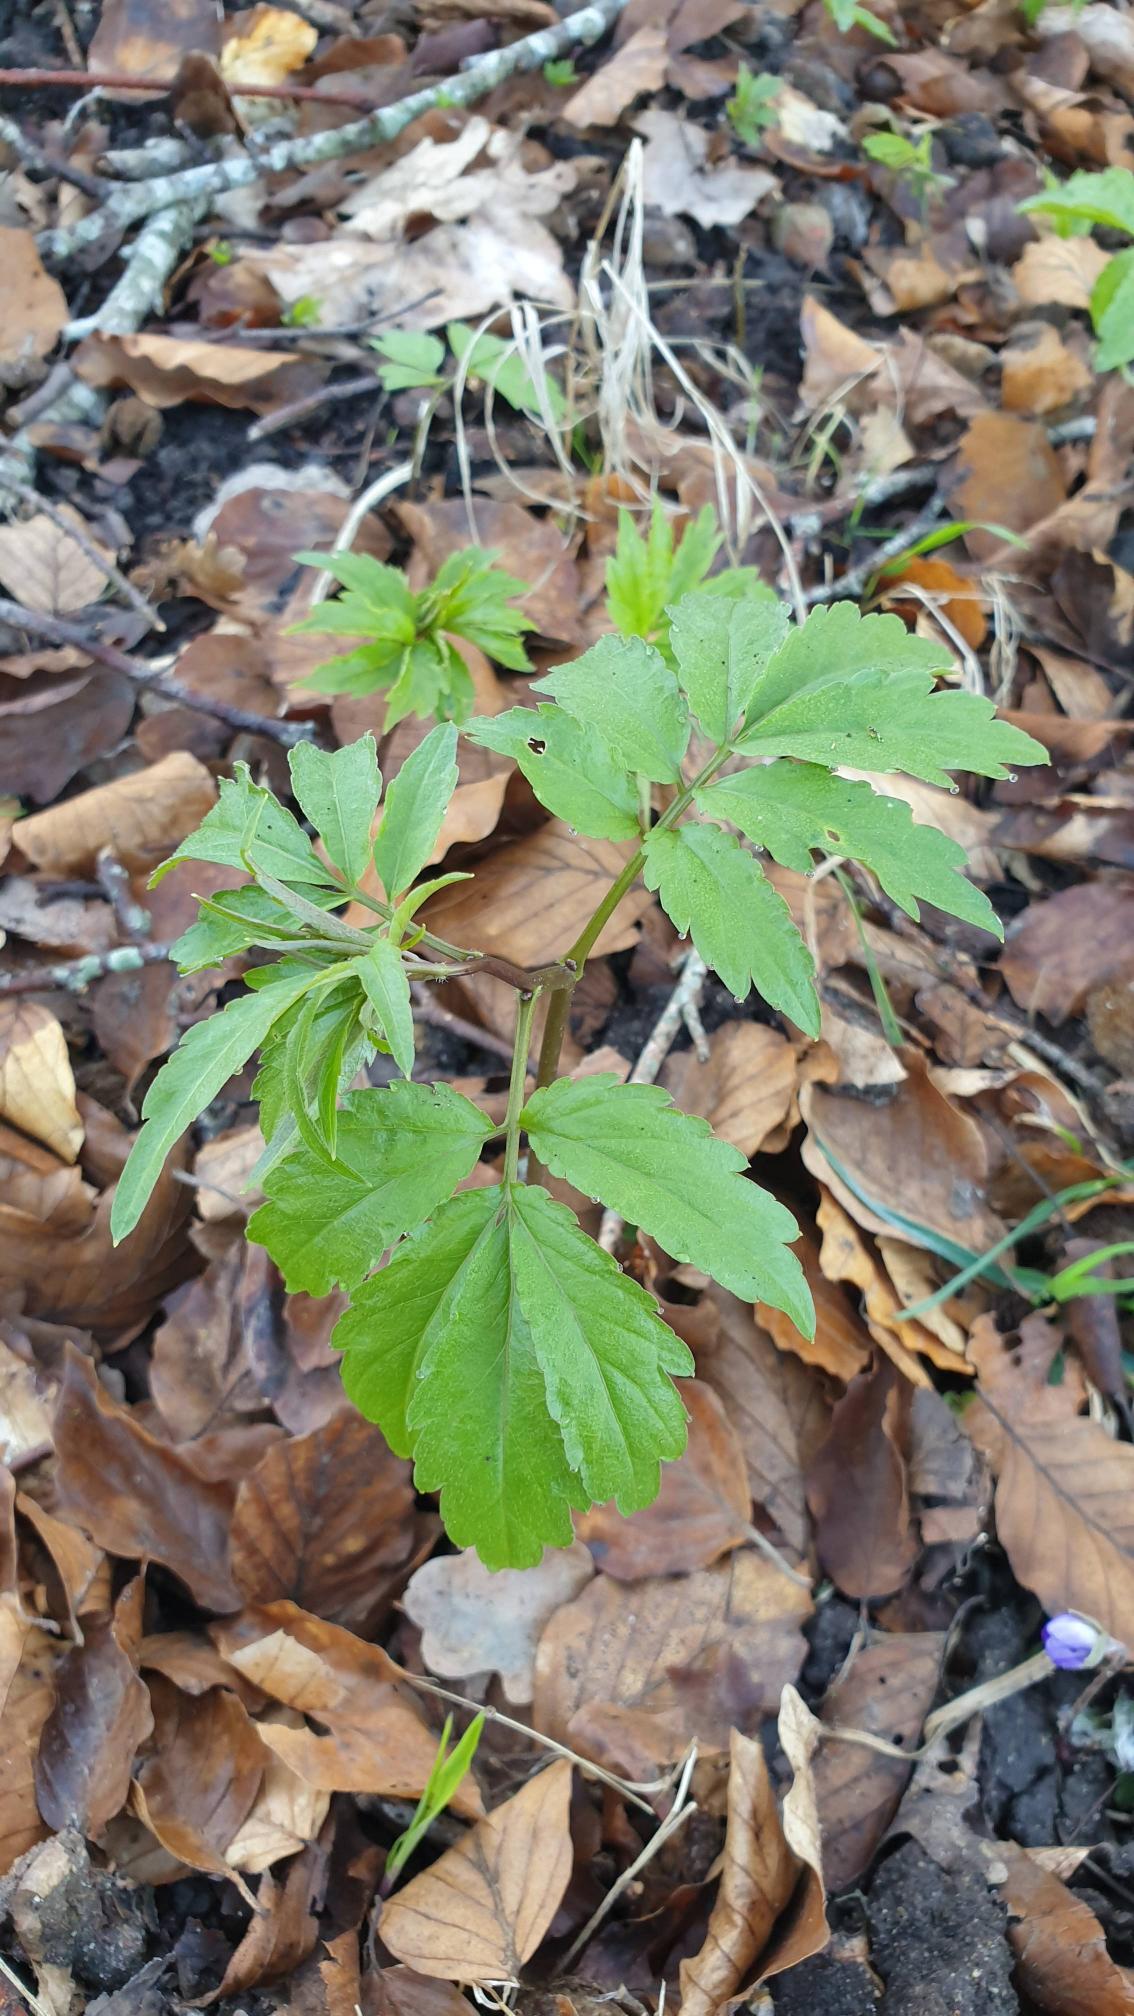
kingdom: Plantae
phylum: Tracheophyta
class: Magnoliopsida
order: Brassicales
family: Brassicaceae
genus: Cardamine
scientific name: Cardamine bulbifera
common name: Tandrod
